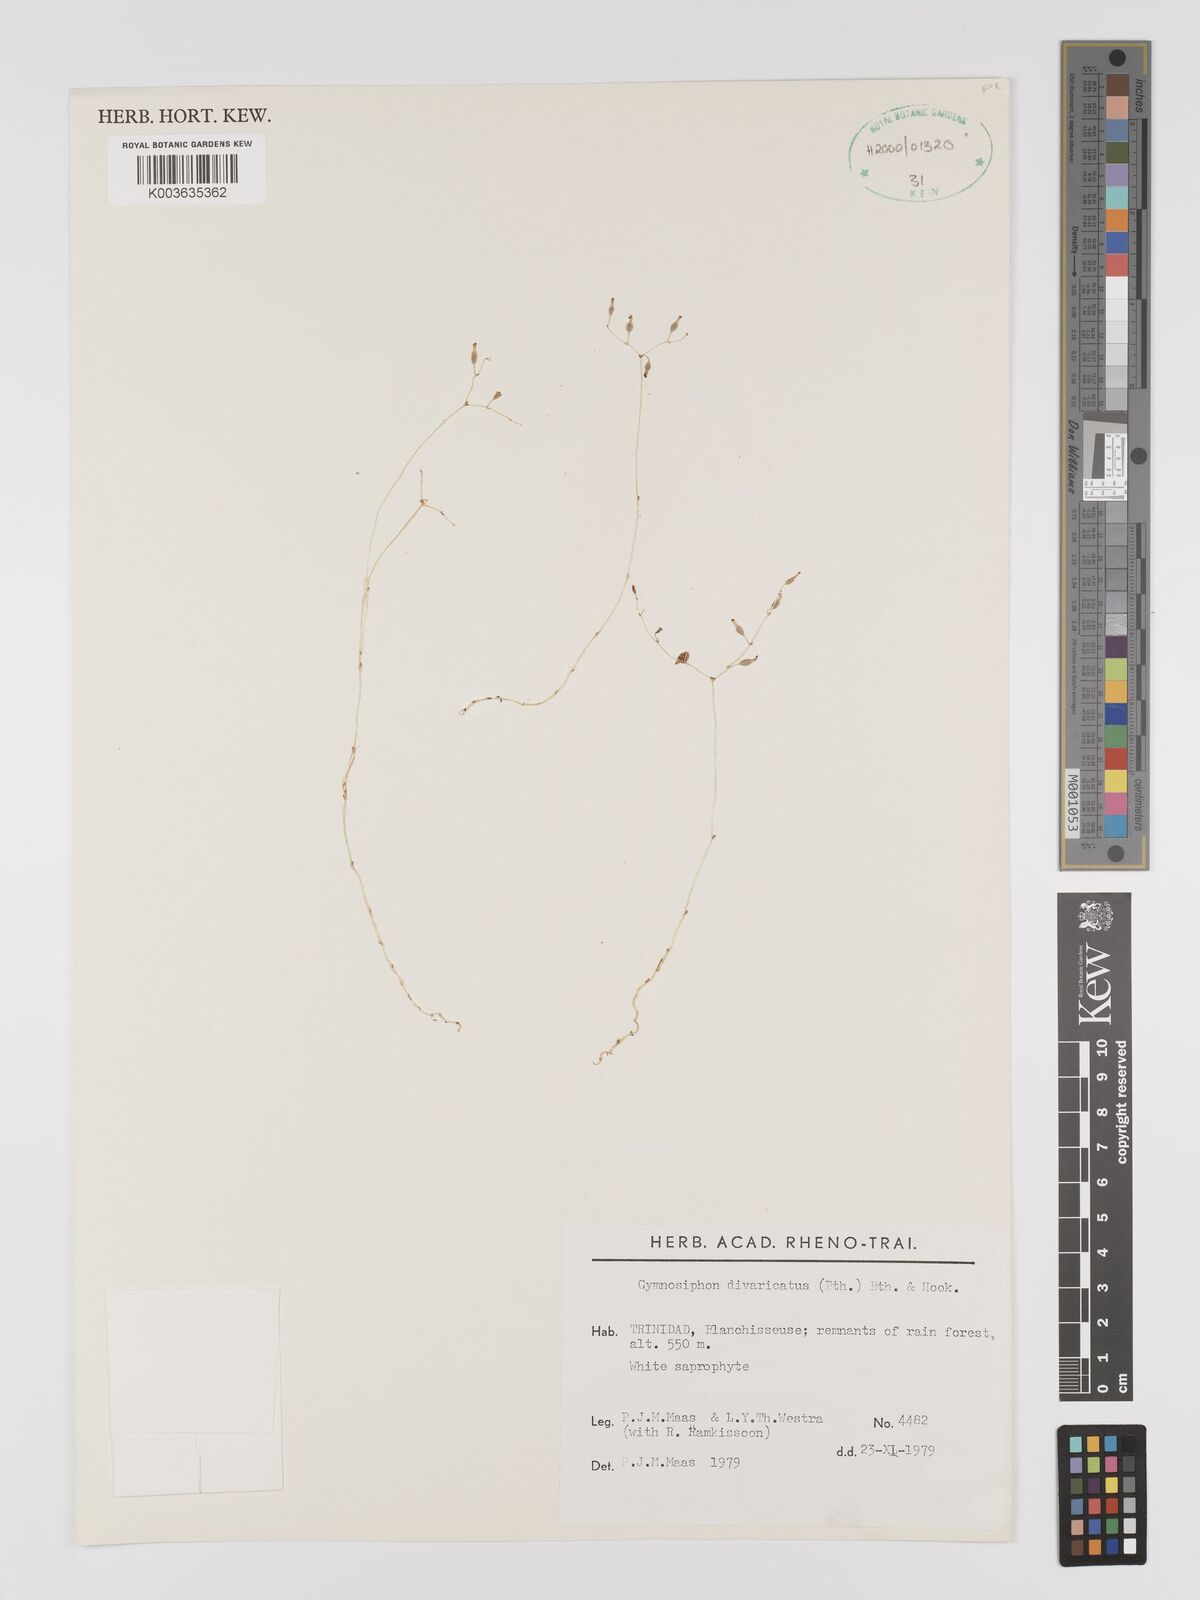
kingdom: Plantae
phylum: Tracheophyta
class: Liliopsida
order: Dioscoreales
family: Burmanniaceae
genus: Gymnosiphon
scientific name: Gymnosiphon divaricatus
